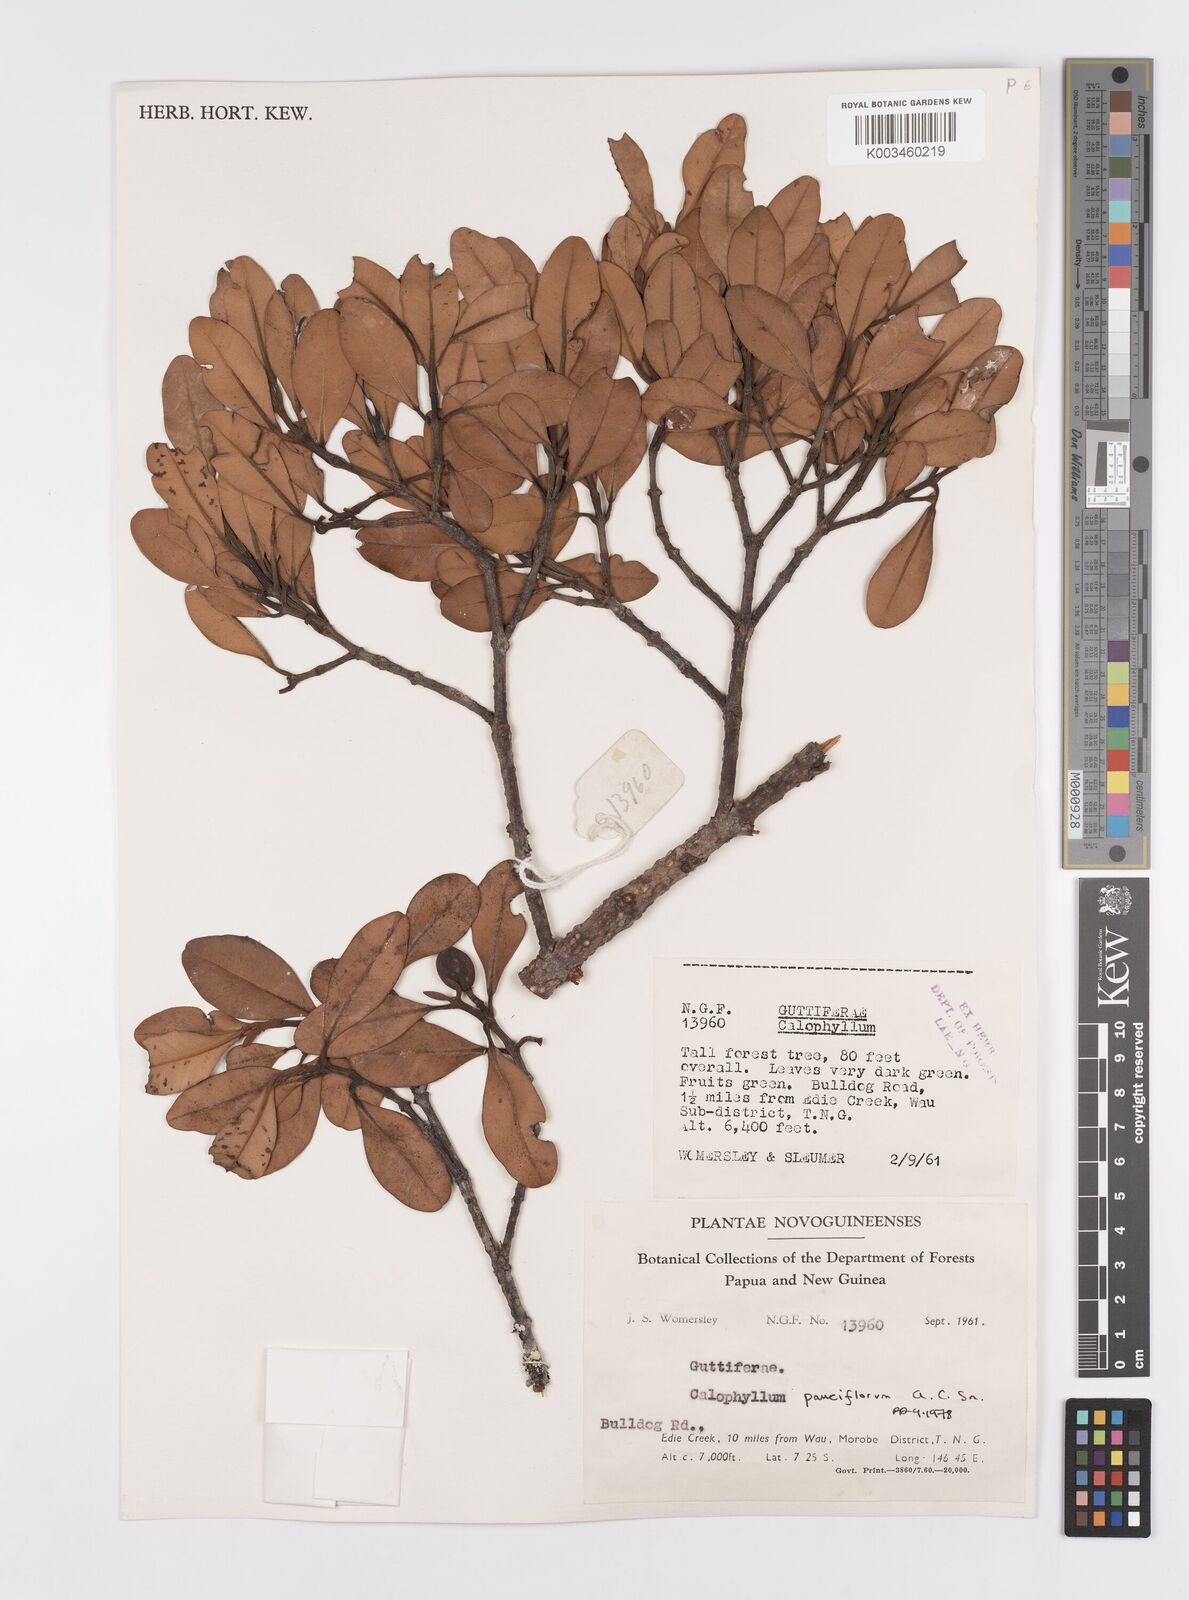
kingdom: Plantae
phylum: Tracheophyta
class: Magnoliopsida
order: Malpighiales
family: Calophyllaceae
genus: Calophyllum
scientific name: Calophyllum parviflorum
